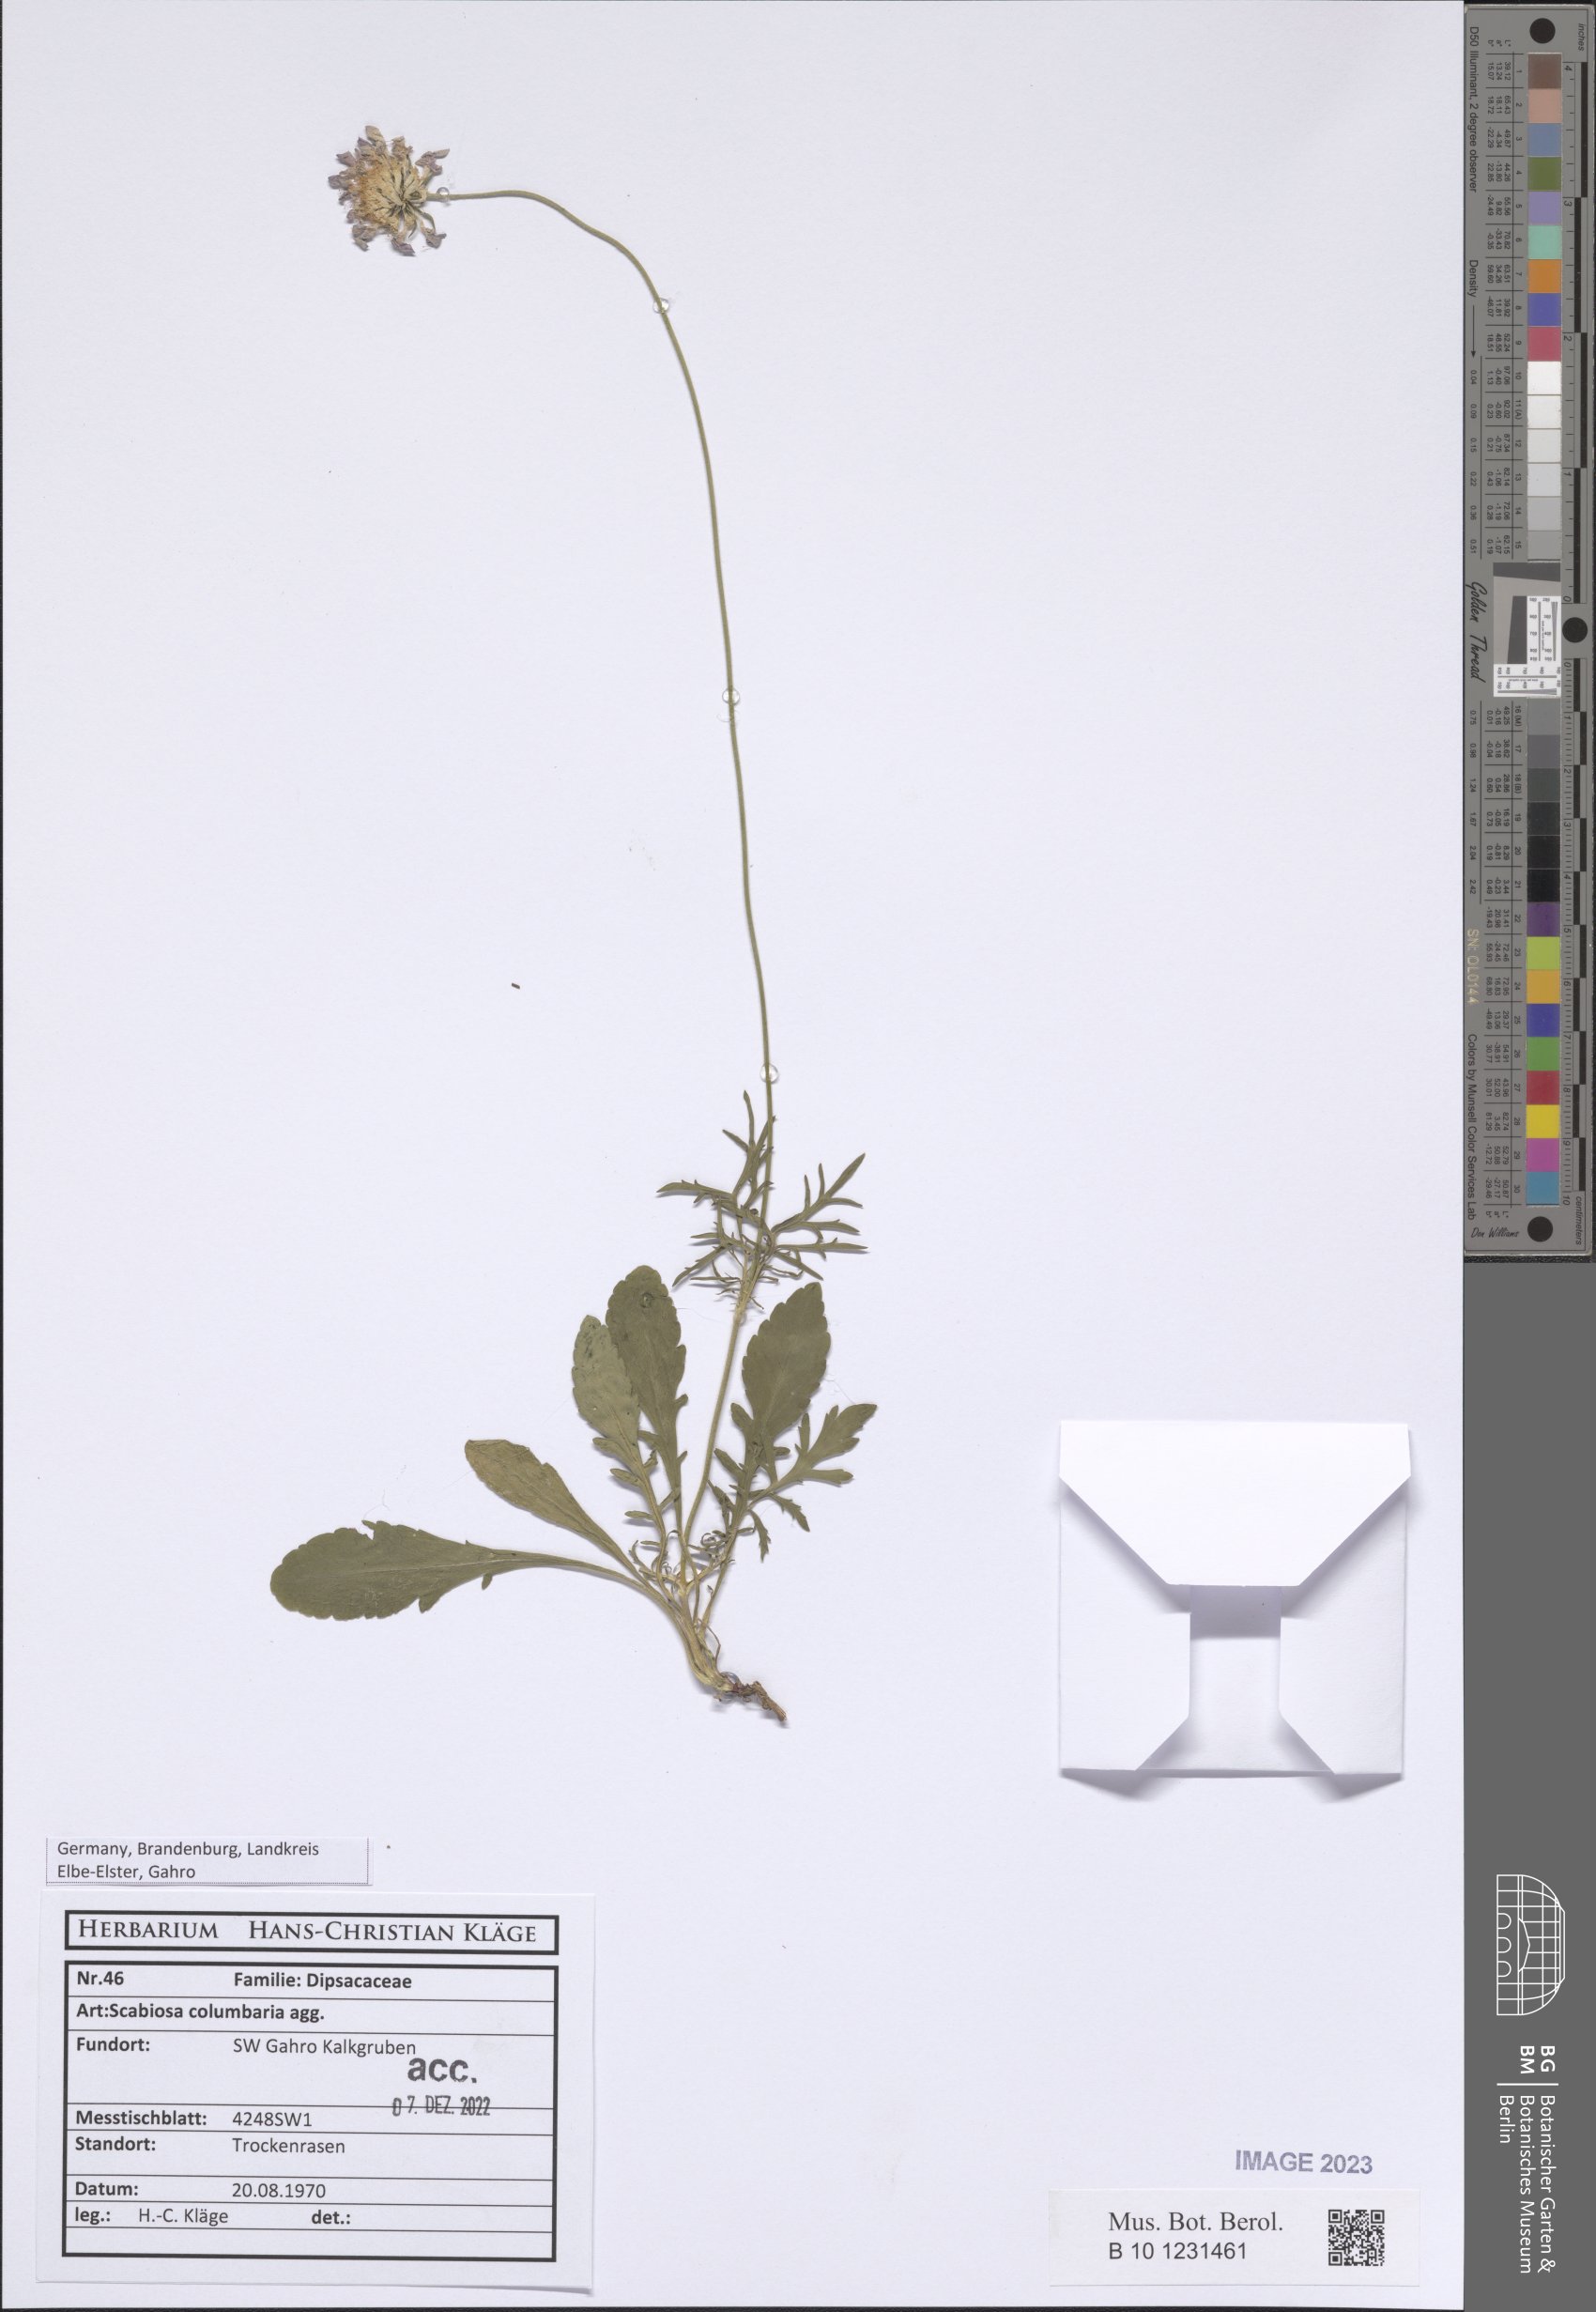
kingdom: Plantae
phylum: Tracheophyta
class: Magnoliopsida
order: Dipsacales
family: Caprifoliaceae
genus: Scabiosa
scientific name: Scabiosa columbaria
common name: Small scabious
